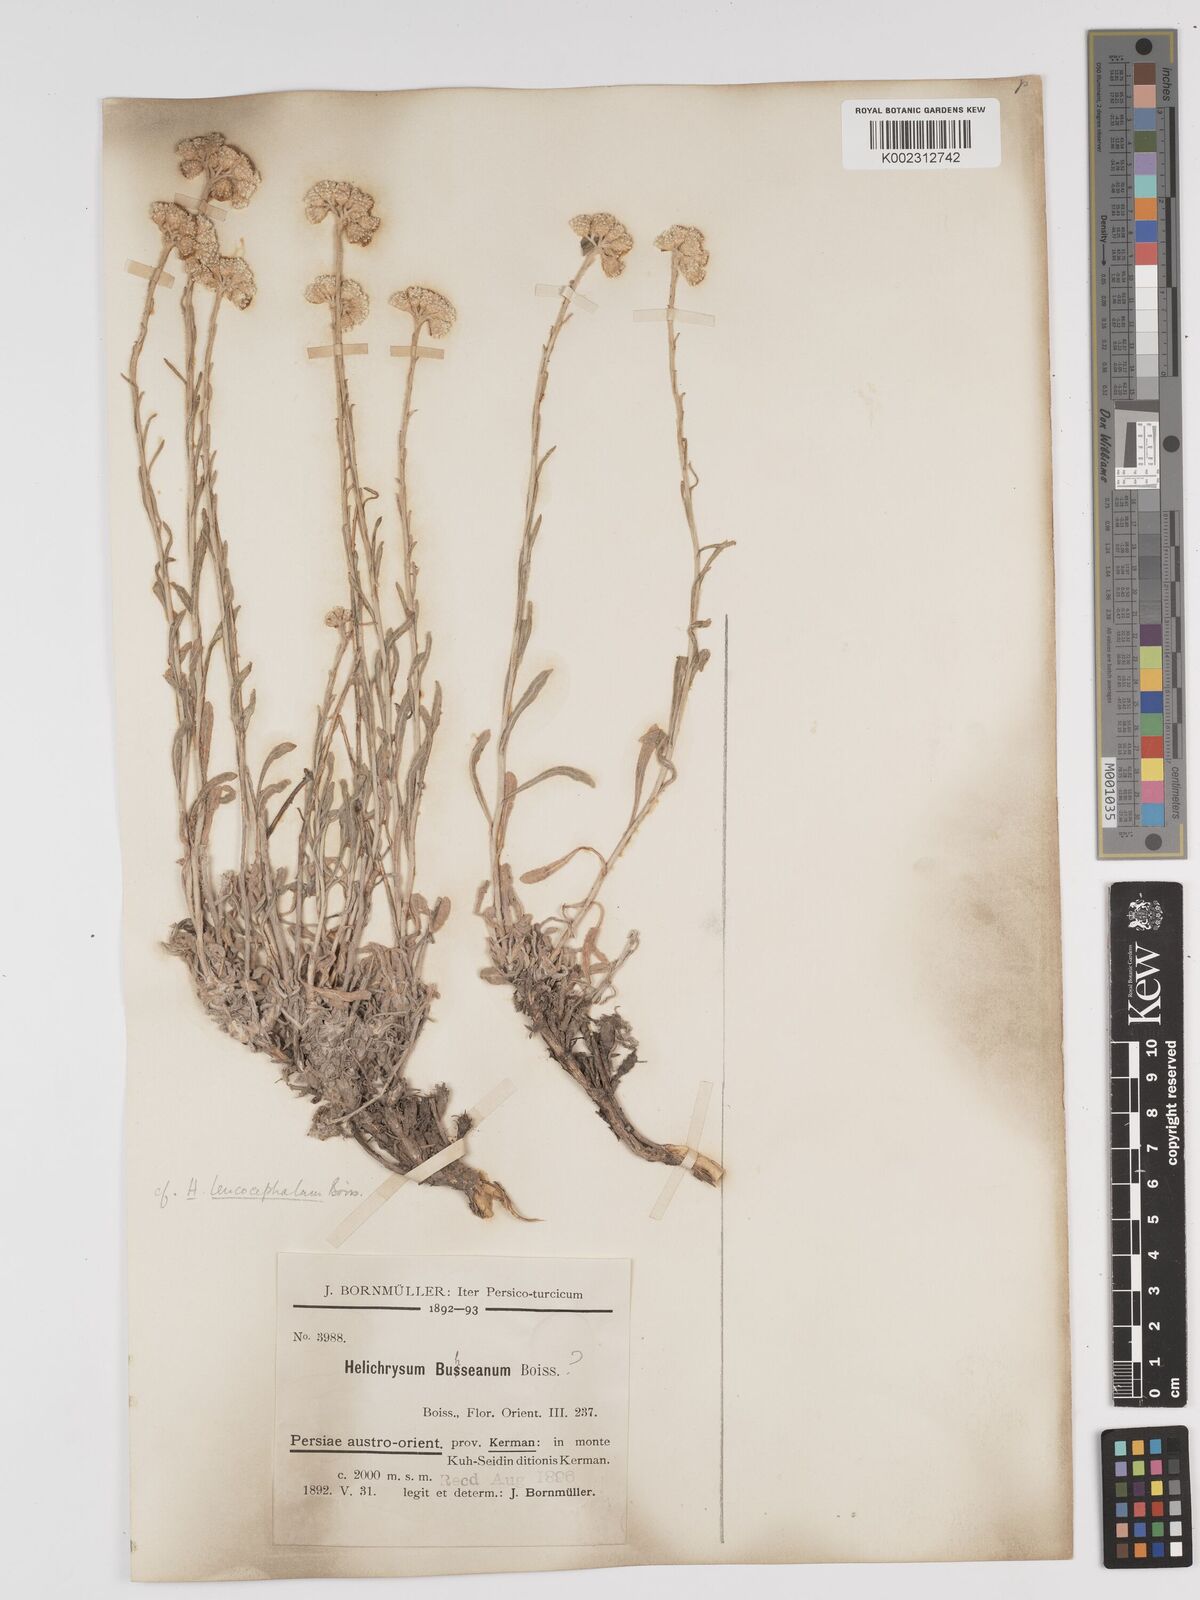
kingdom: Plantae
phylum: Tracheophyta
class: Magnoliopsida
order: Asterales
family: Asteraceae
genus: Helichrysum
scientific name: Helichrysum leucocephalum
